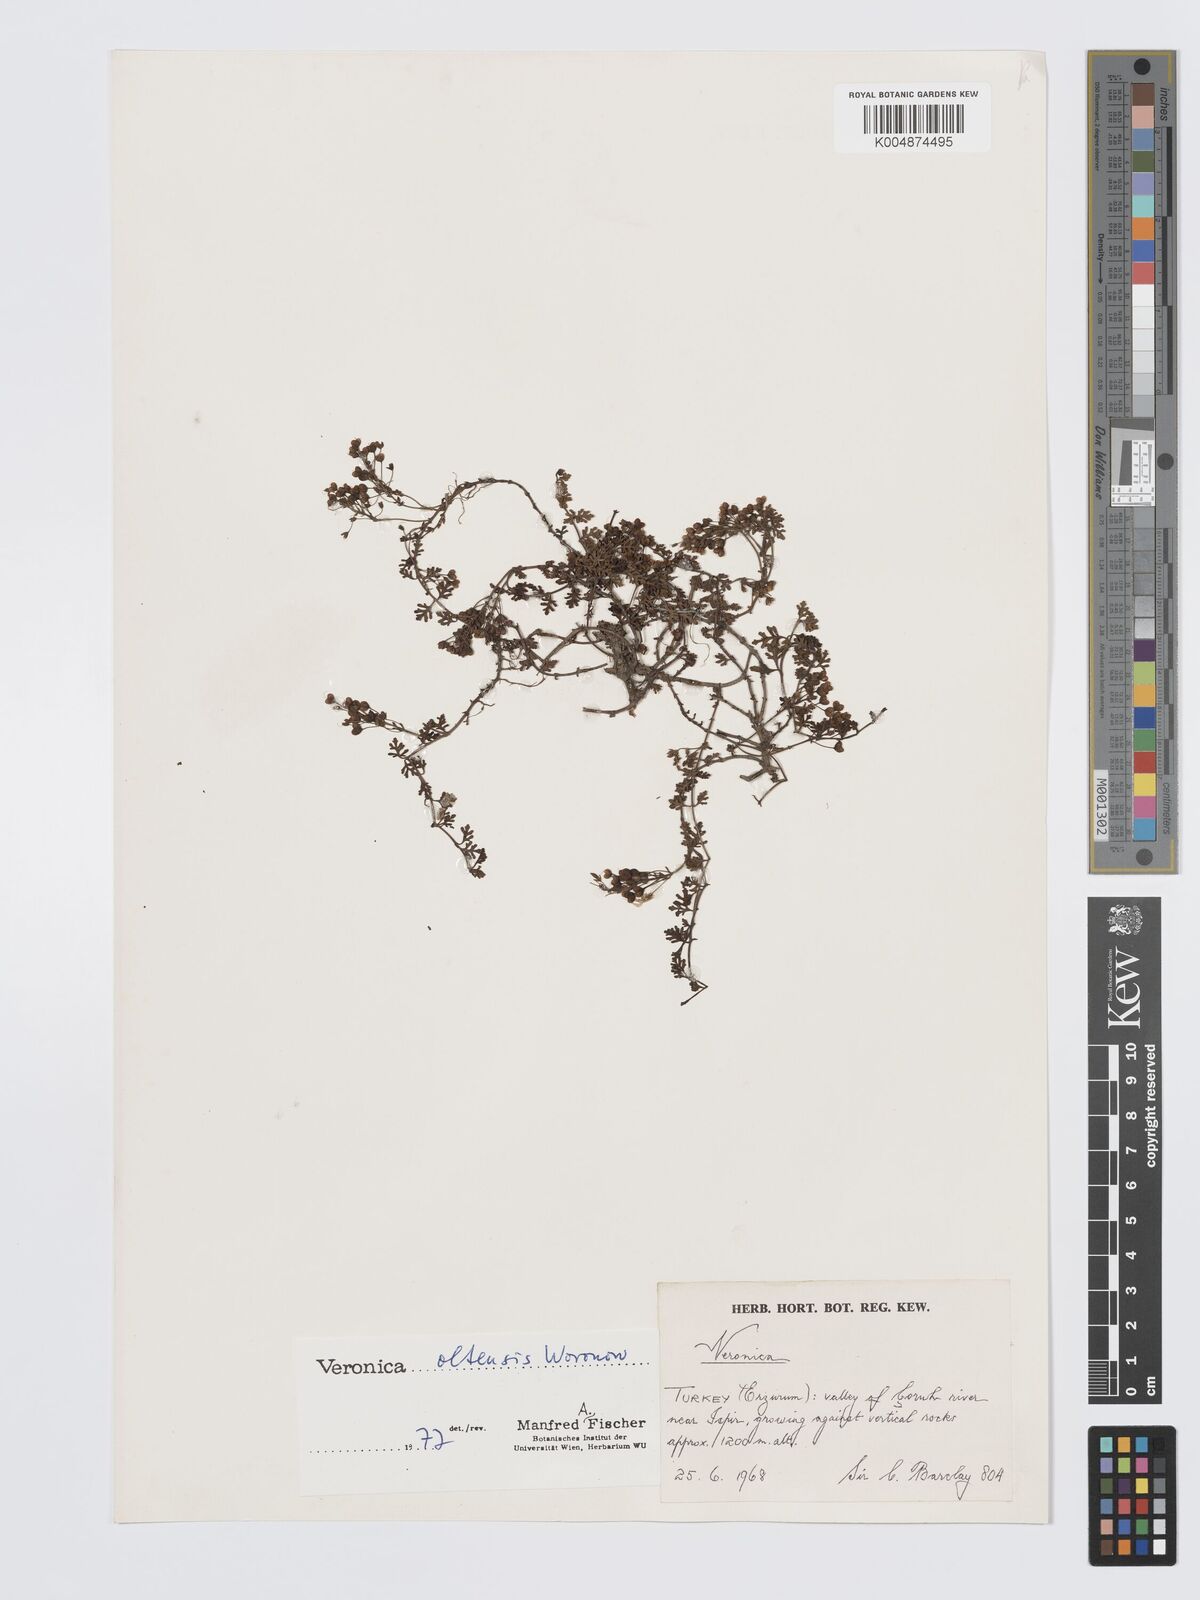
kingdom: Plantae
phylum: Tracheophyta
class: Magnoliopsida
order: Lamiales
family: Plantaginaceae
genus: Veronica
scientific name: Veronica oltensis
